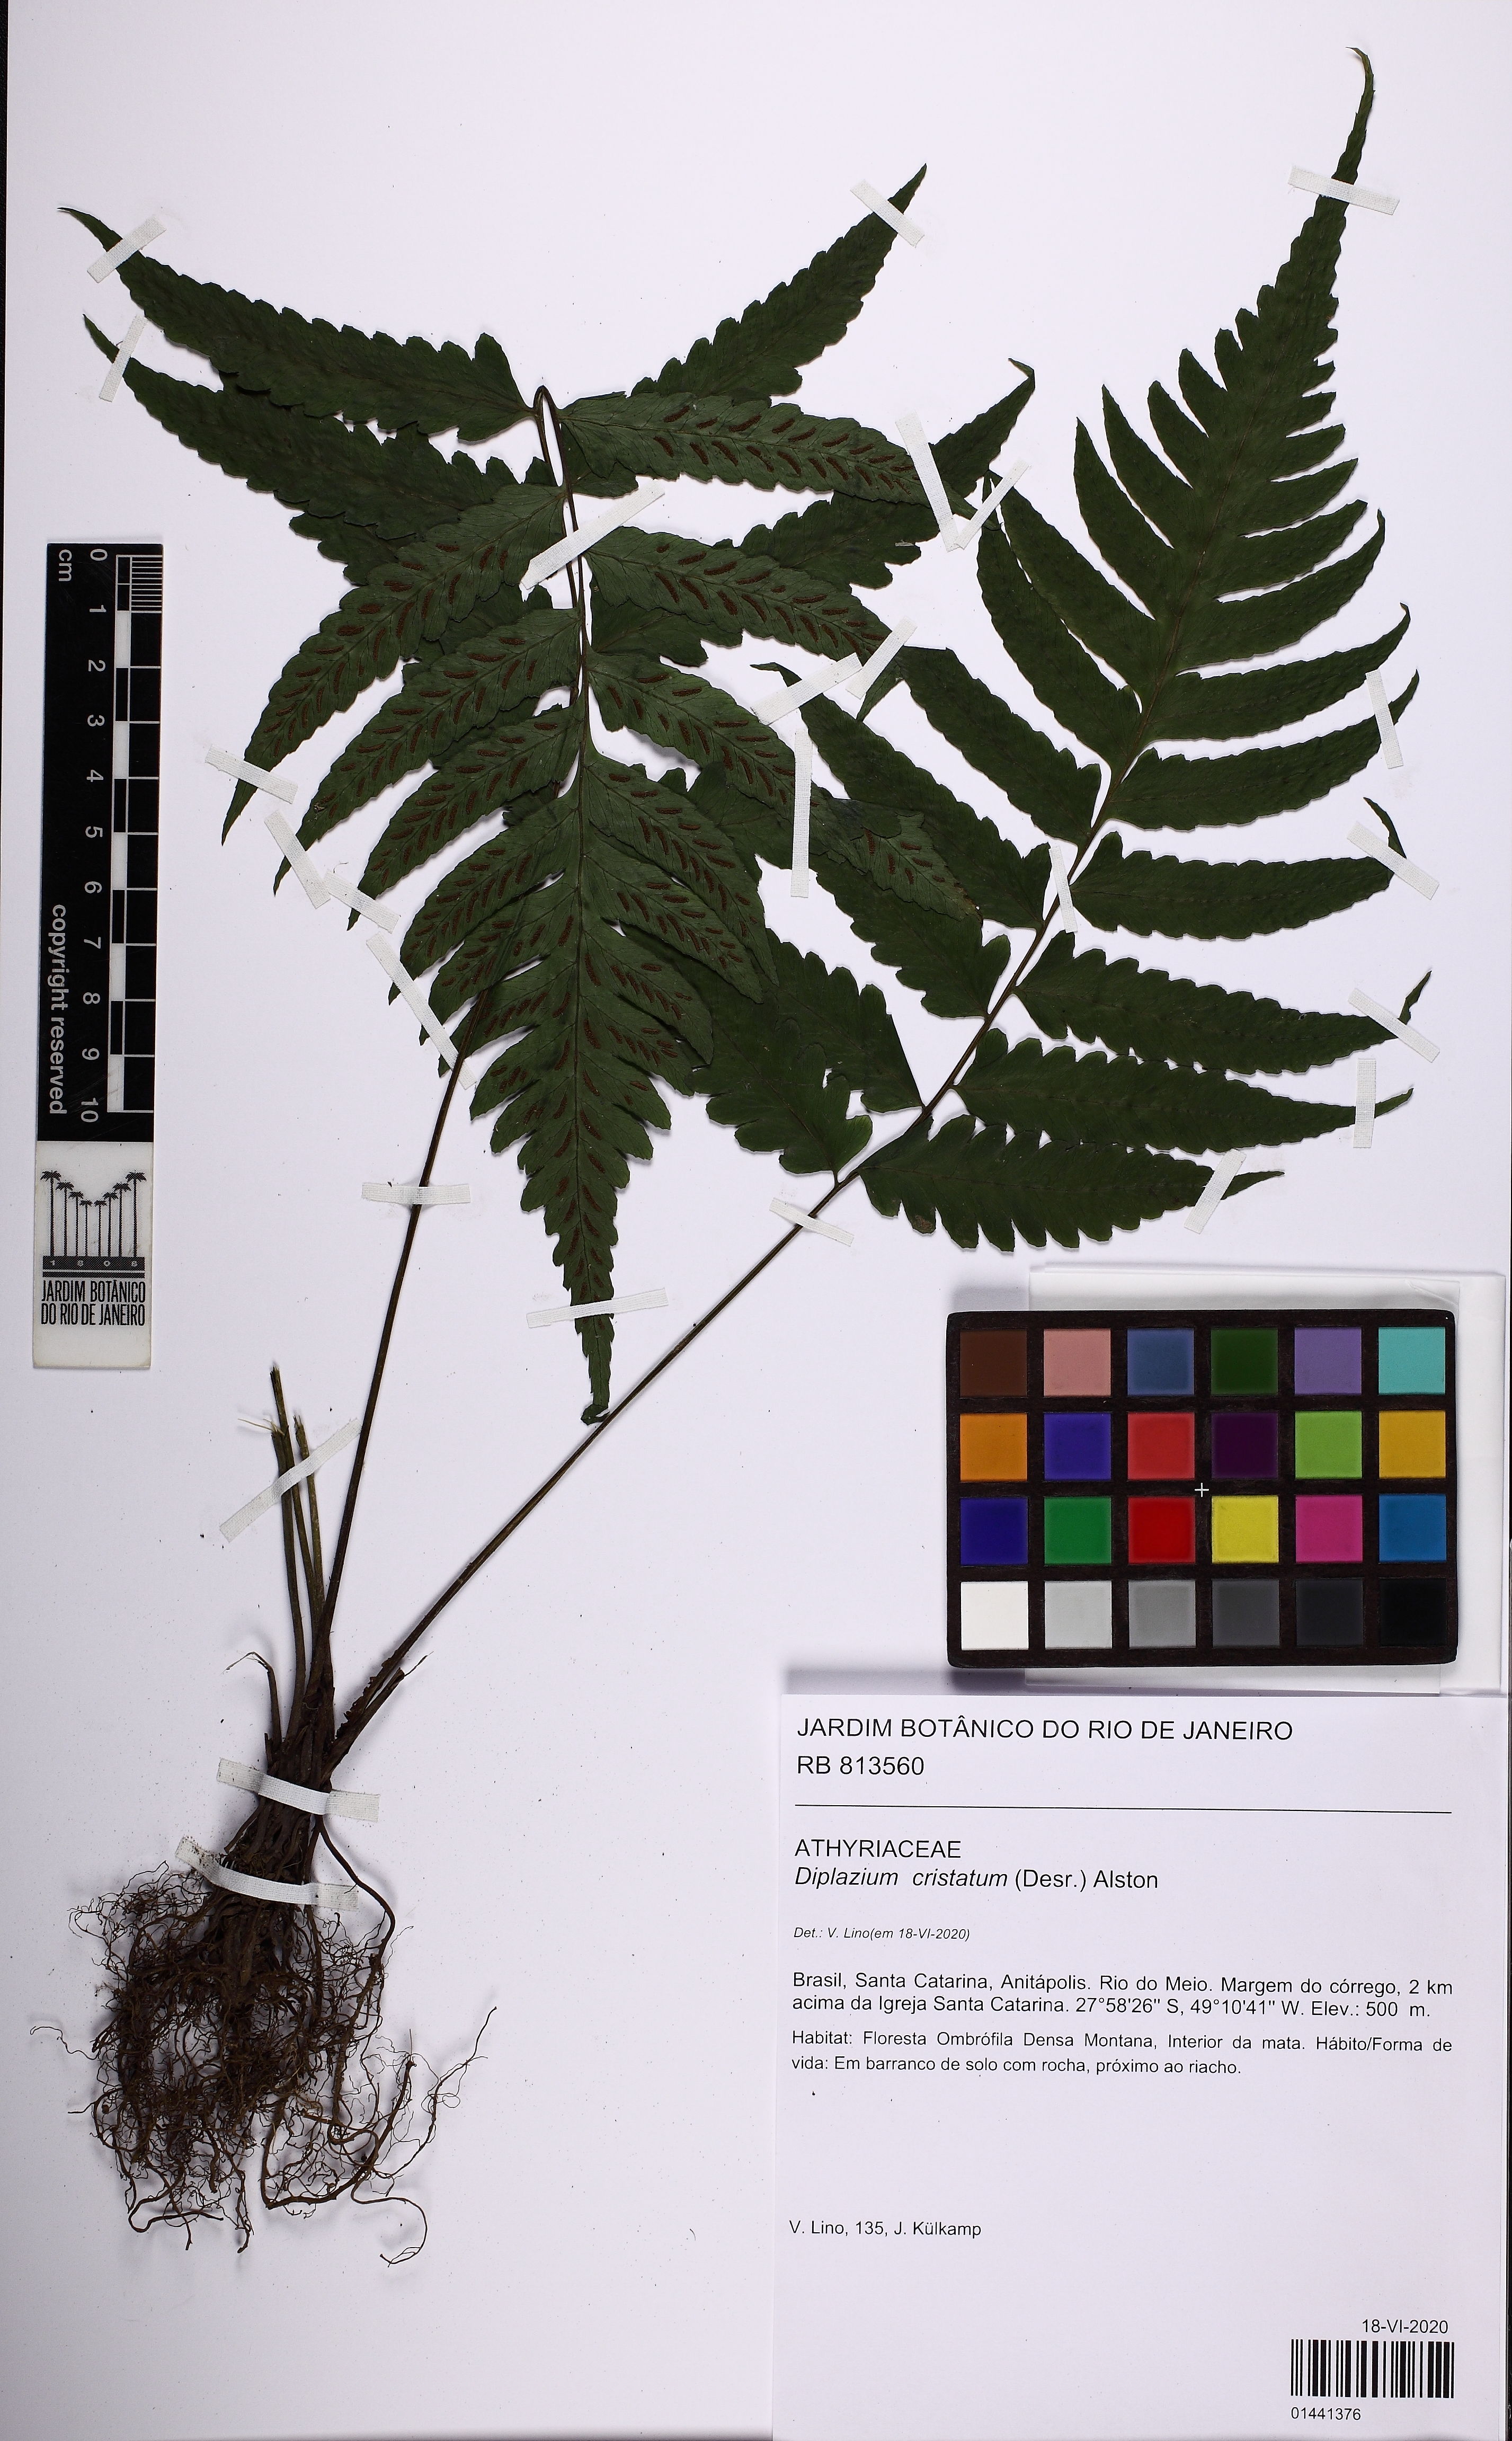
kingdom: Plantae
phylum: Tracheophyta
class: Polypodiopsida
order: Polypodiales
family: Athyriaceae
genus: Diplazium
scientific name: Diplazium cristatum
